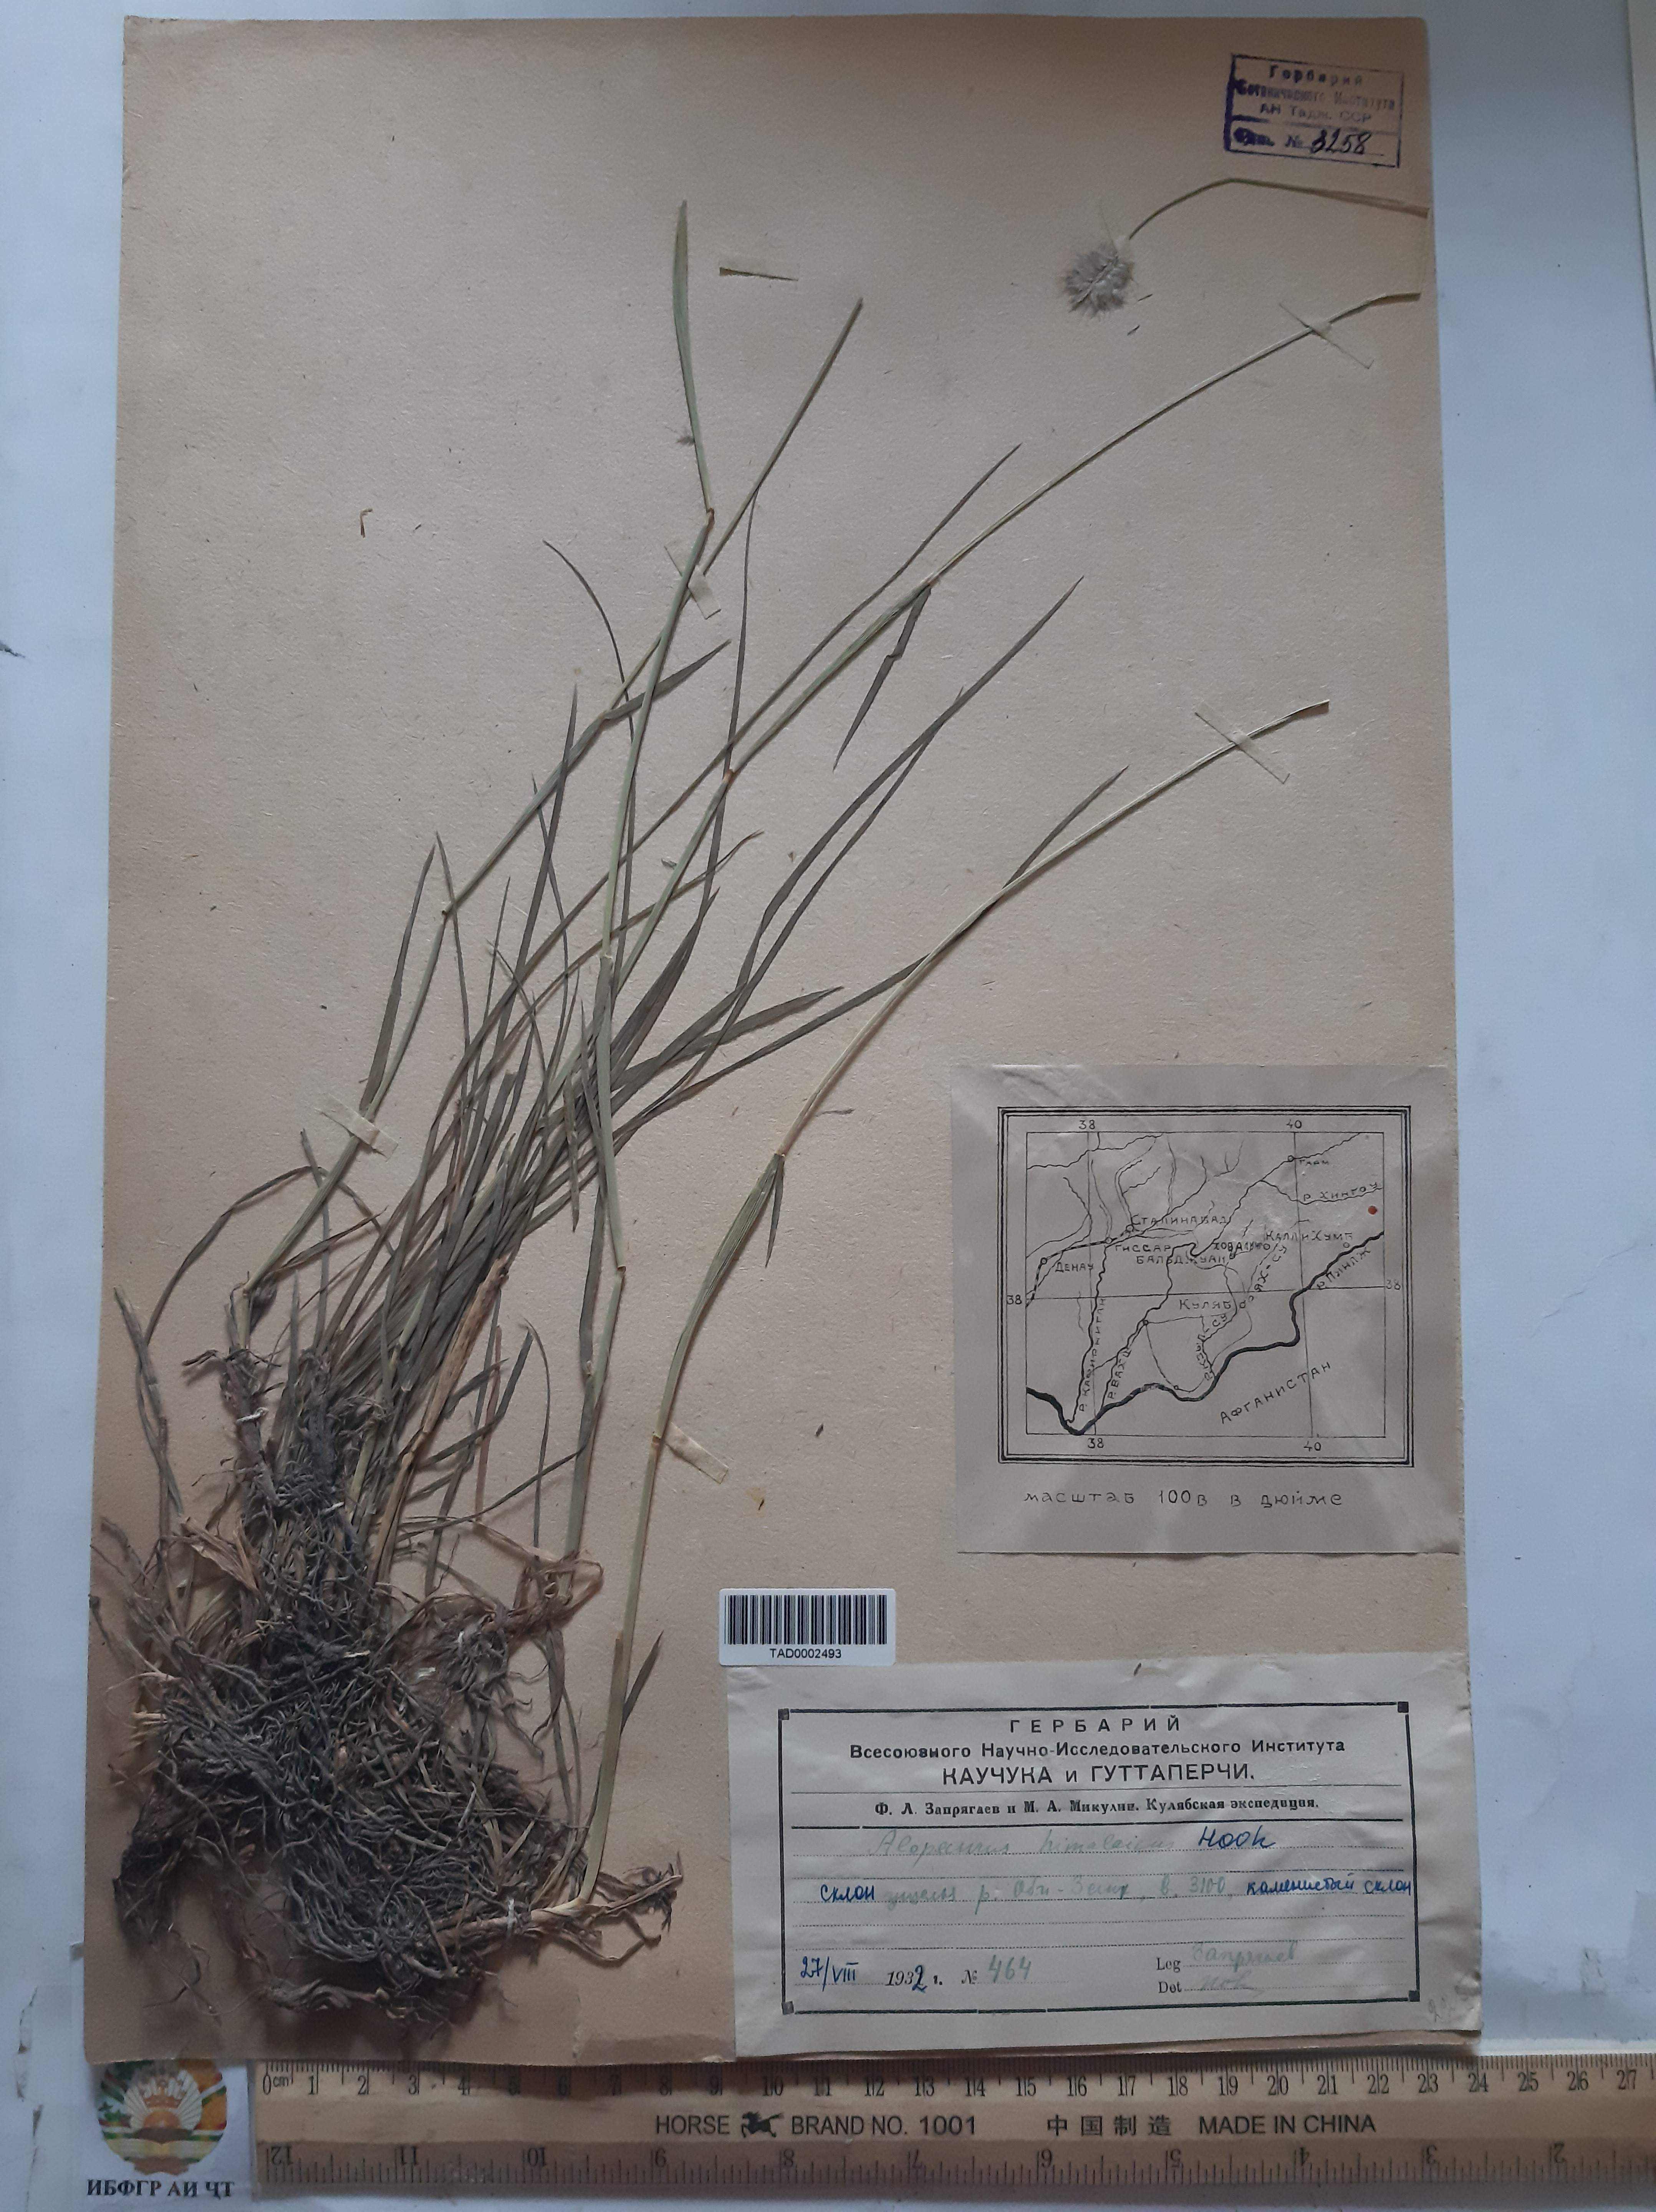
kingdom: Plantae
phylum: Tracheophyta
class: Liliopsida
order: Poales
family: Poaceae
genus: Alopecurus
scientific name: Alopecurus himalaicus
